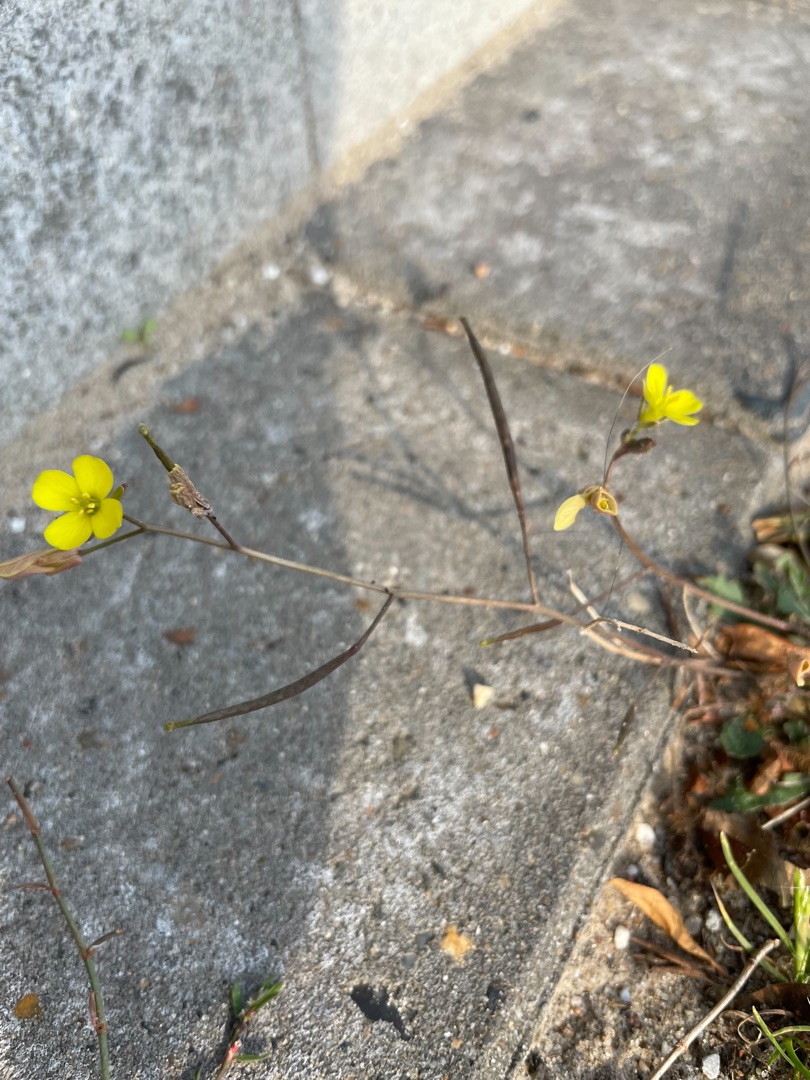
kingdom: Plantae
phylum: Tracheophyta
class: Magnoliopsida
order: Brassicales
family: Brassicaceae
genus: Diplotaxis
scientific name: Diplotaxis muralis
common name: Mursennep
